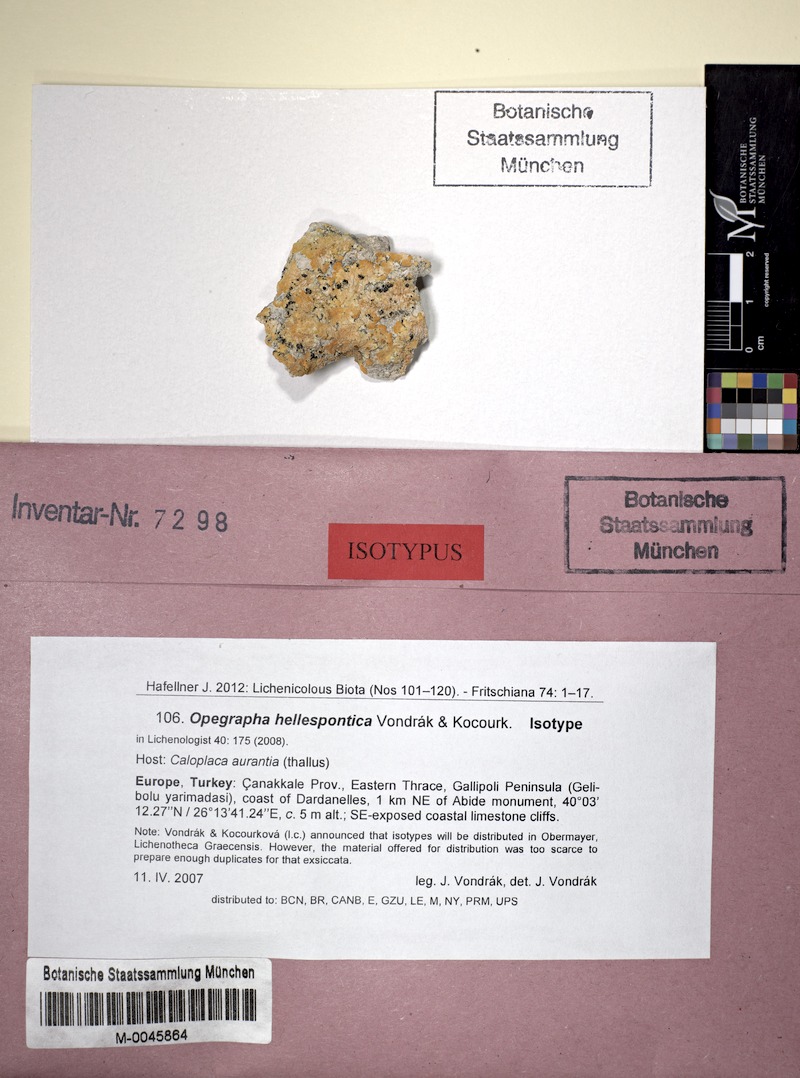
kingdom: Fungi
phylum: Ascomycota
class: Lecanoromycetes
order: Teloschistales
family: Teloschistaceae
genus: Variospora
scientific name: Variospora aurantia
